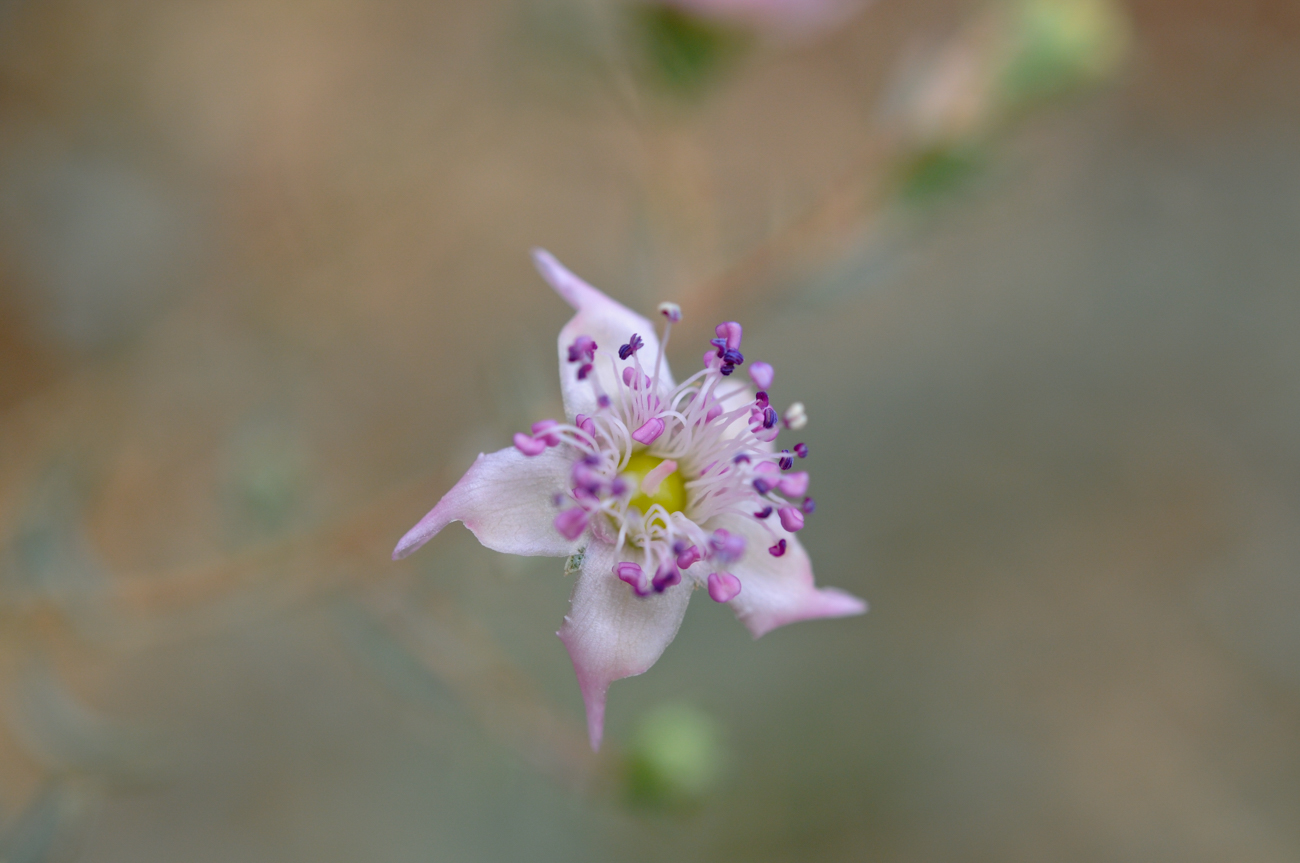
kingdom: Plantae
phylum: Tracheophyta
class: Magnoliopsida
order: Caryophyllales
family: Tamaricaceae
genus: Reaumuria
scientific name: Reaumuria alternifolia
